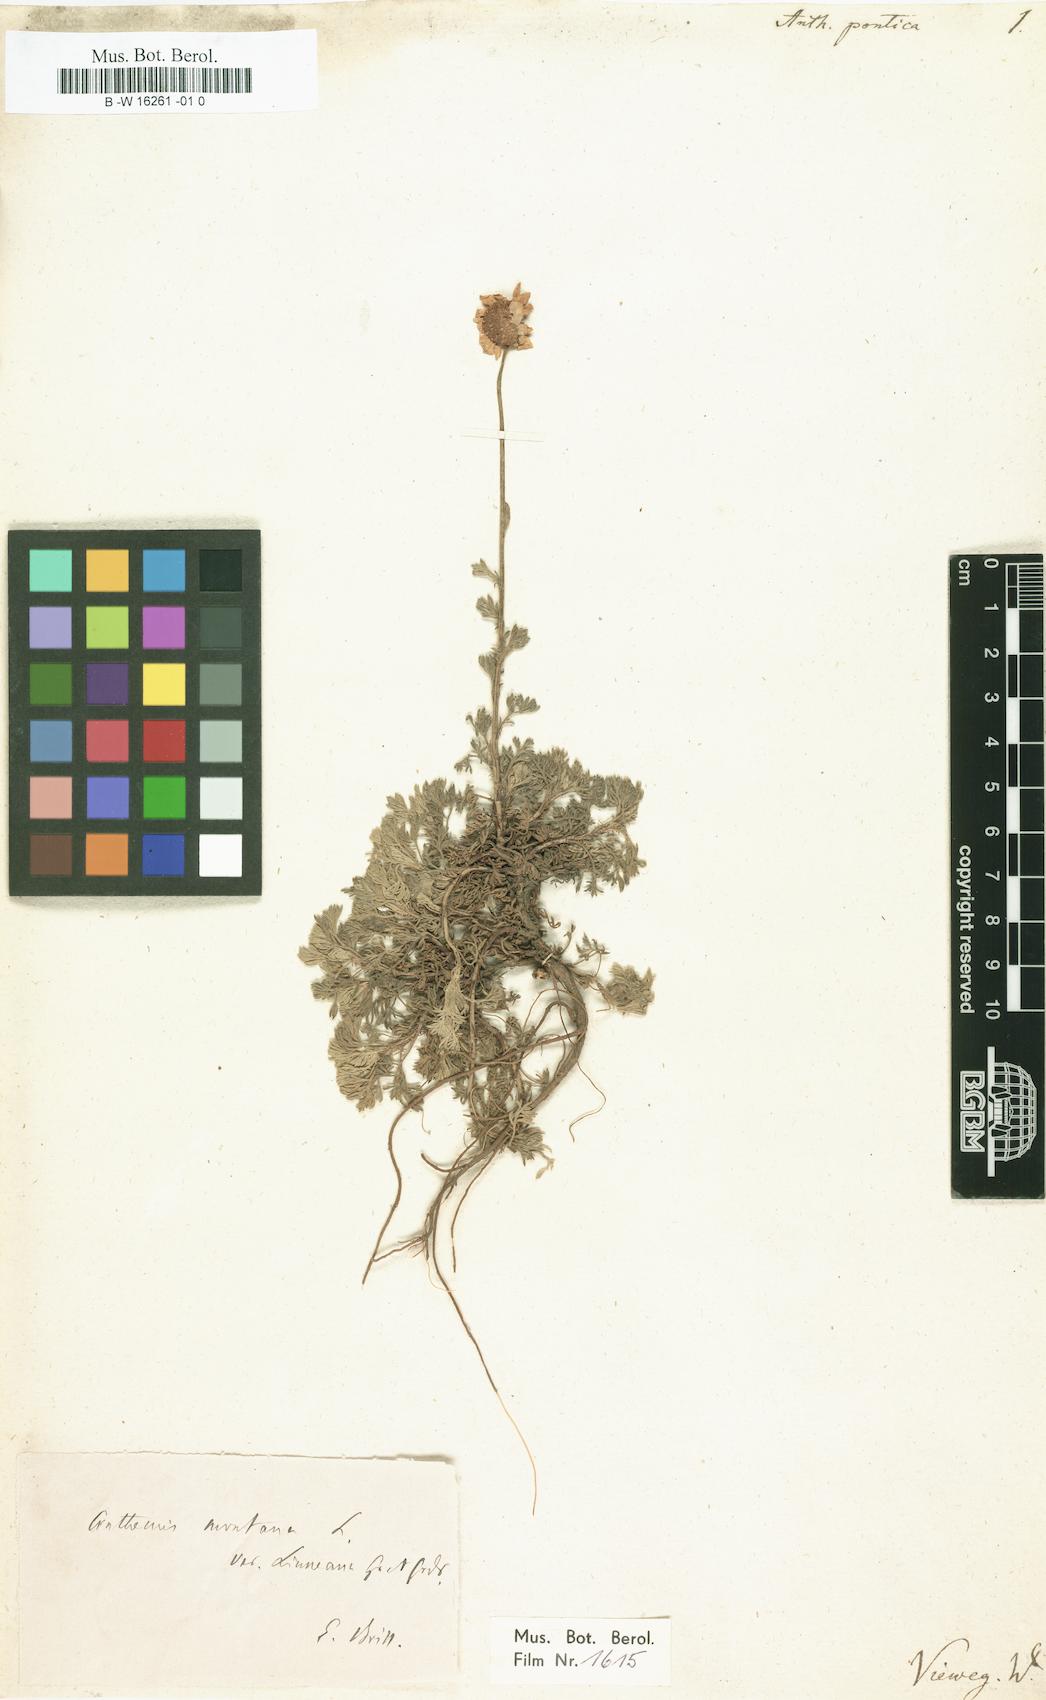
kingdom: Plantae
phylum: Tracheophyta
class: Magnoliopsida
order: Asterales
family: Asteraceae
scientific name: Asteraceae
